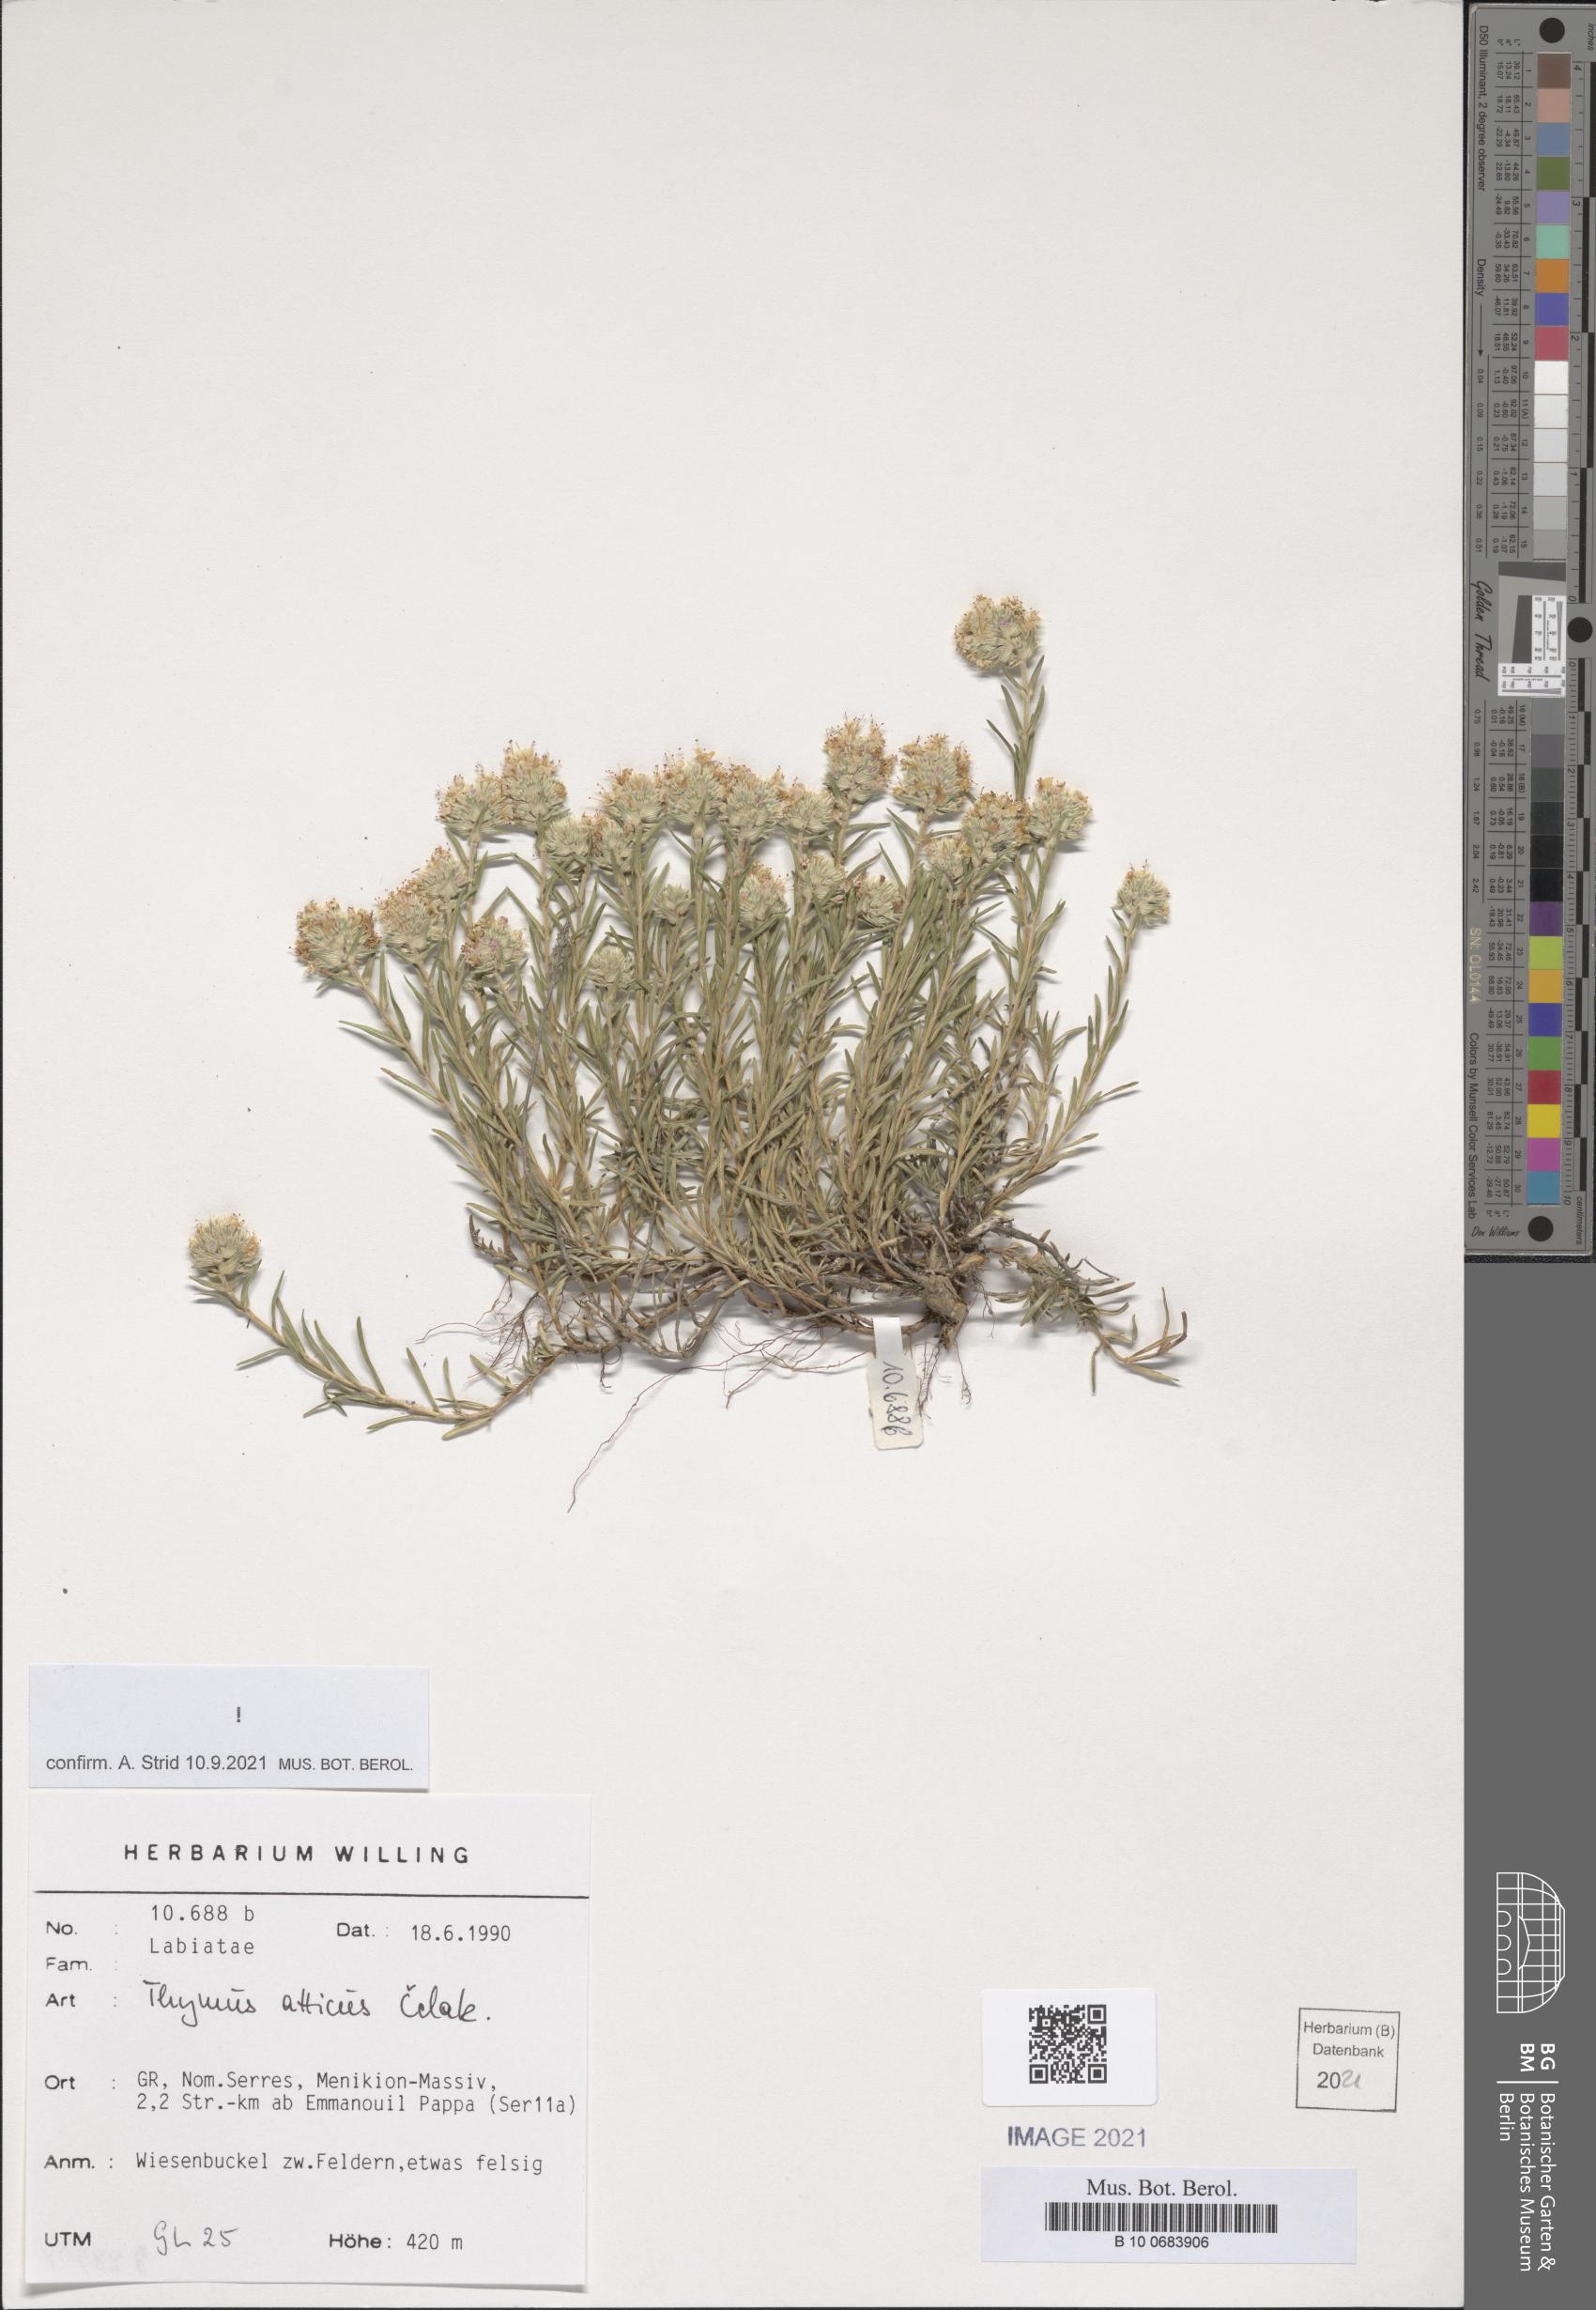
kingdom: Plantae
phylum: Tracheophyta
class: Magnoliopsida
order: Lamiales
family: Lamiaceae
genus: Thymus
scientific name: Thymus atticus
